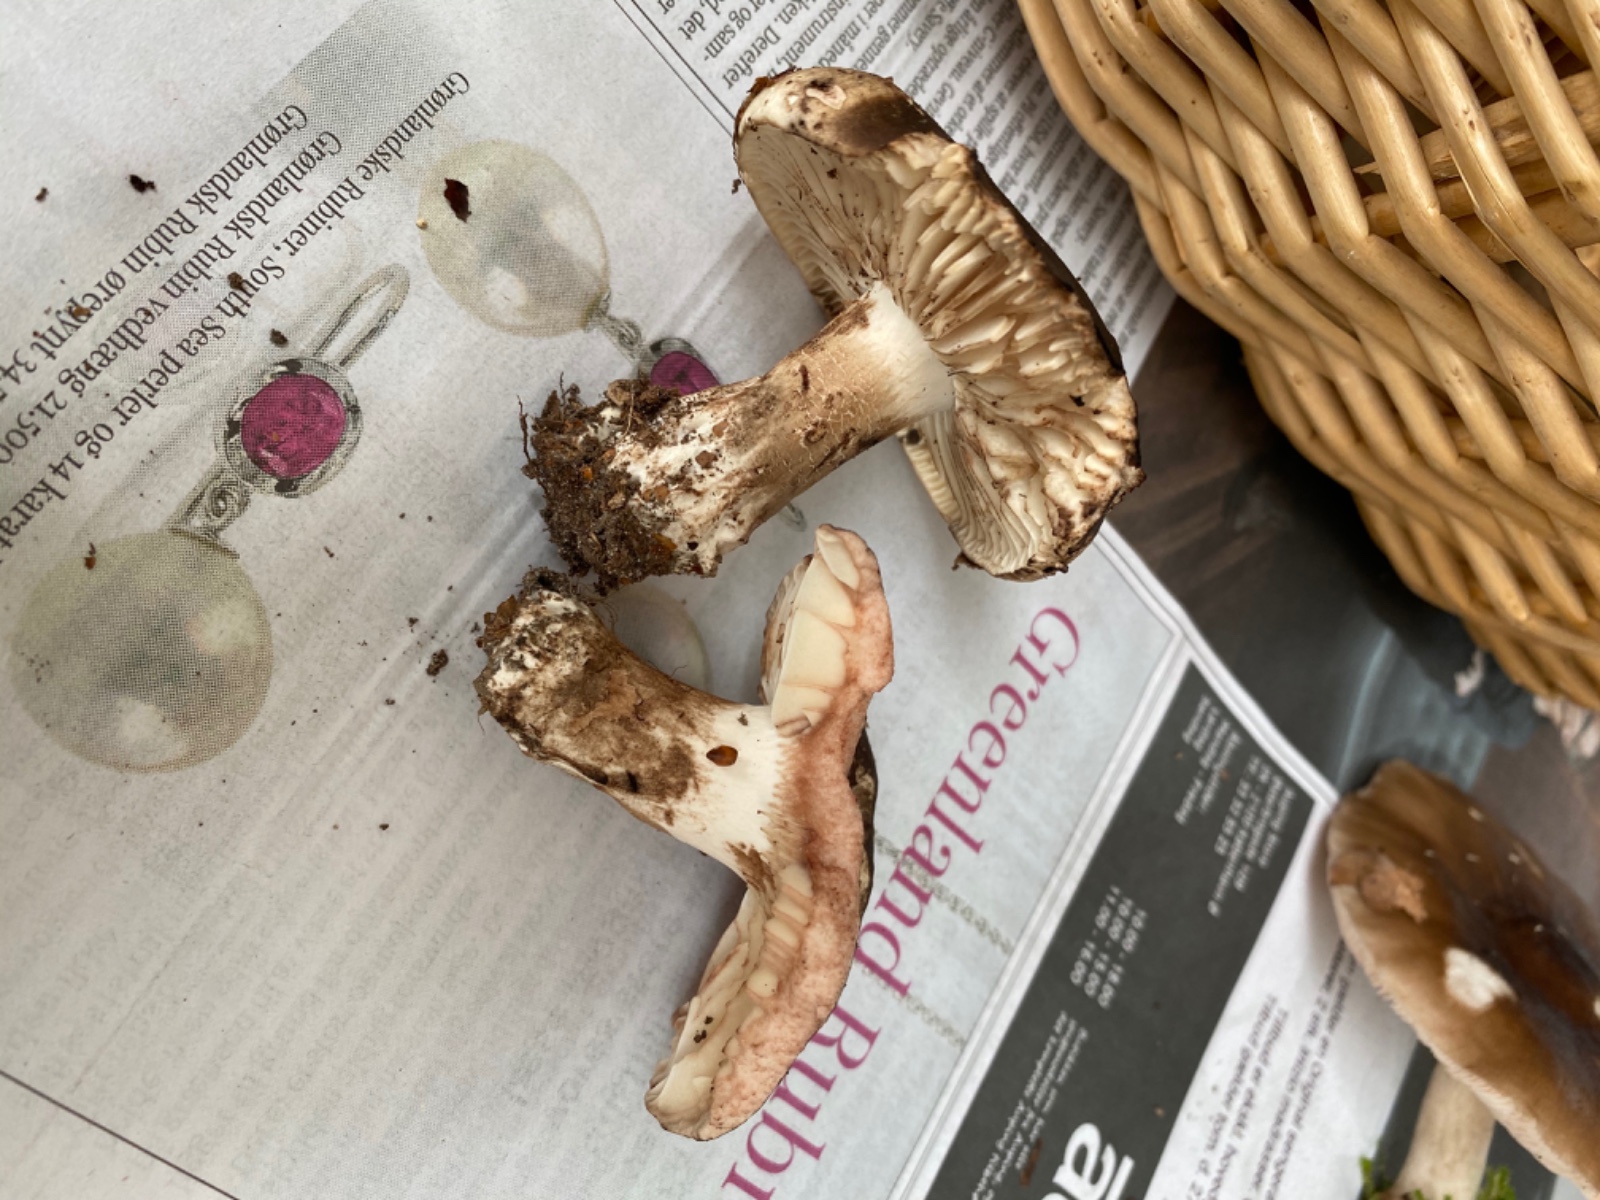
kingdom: Fungi
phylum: Basidiomycota
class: Agaricomycetes
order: Russulales
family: Russulaceae
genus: Russula
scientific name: Russula adusta
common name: sværtende skørhat
